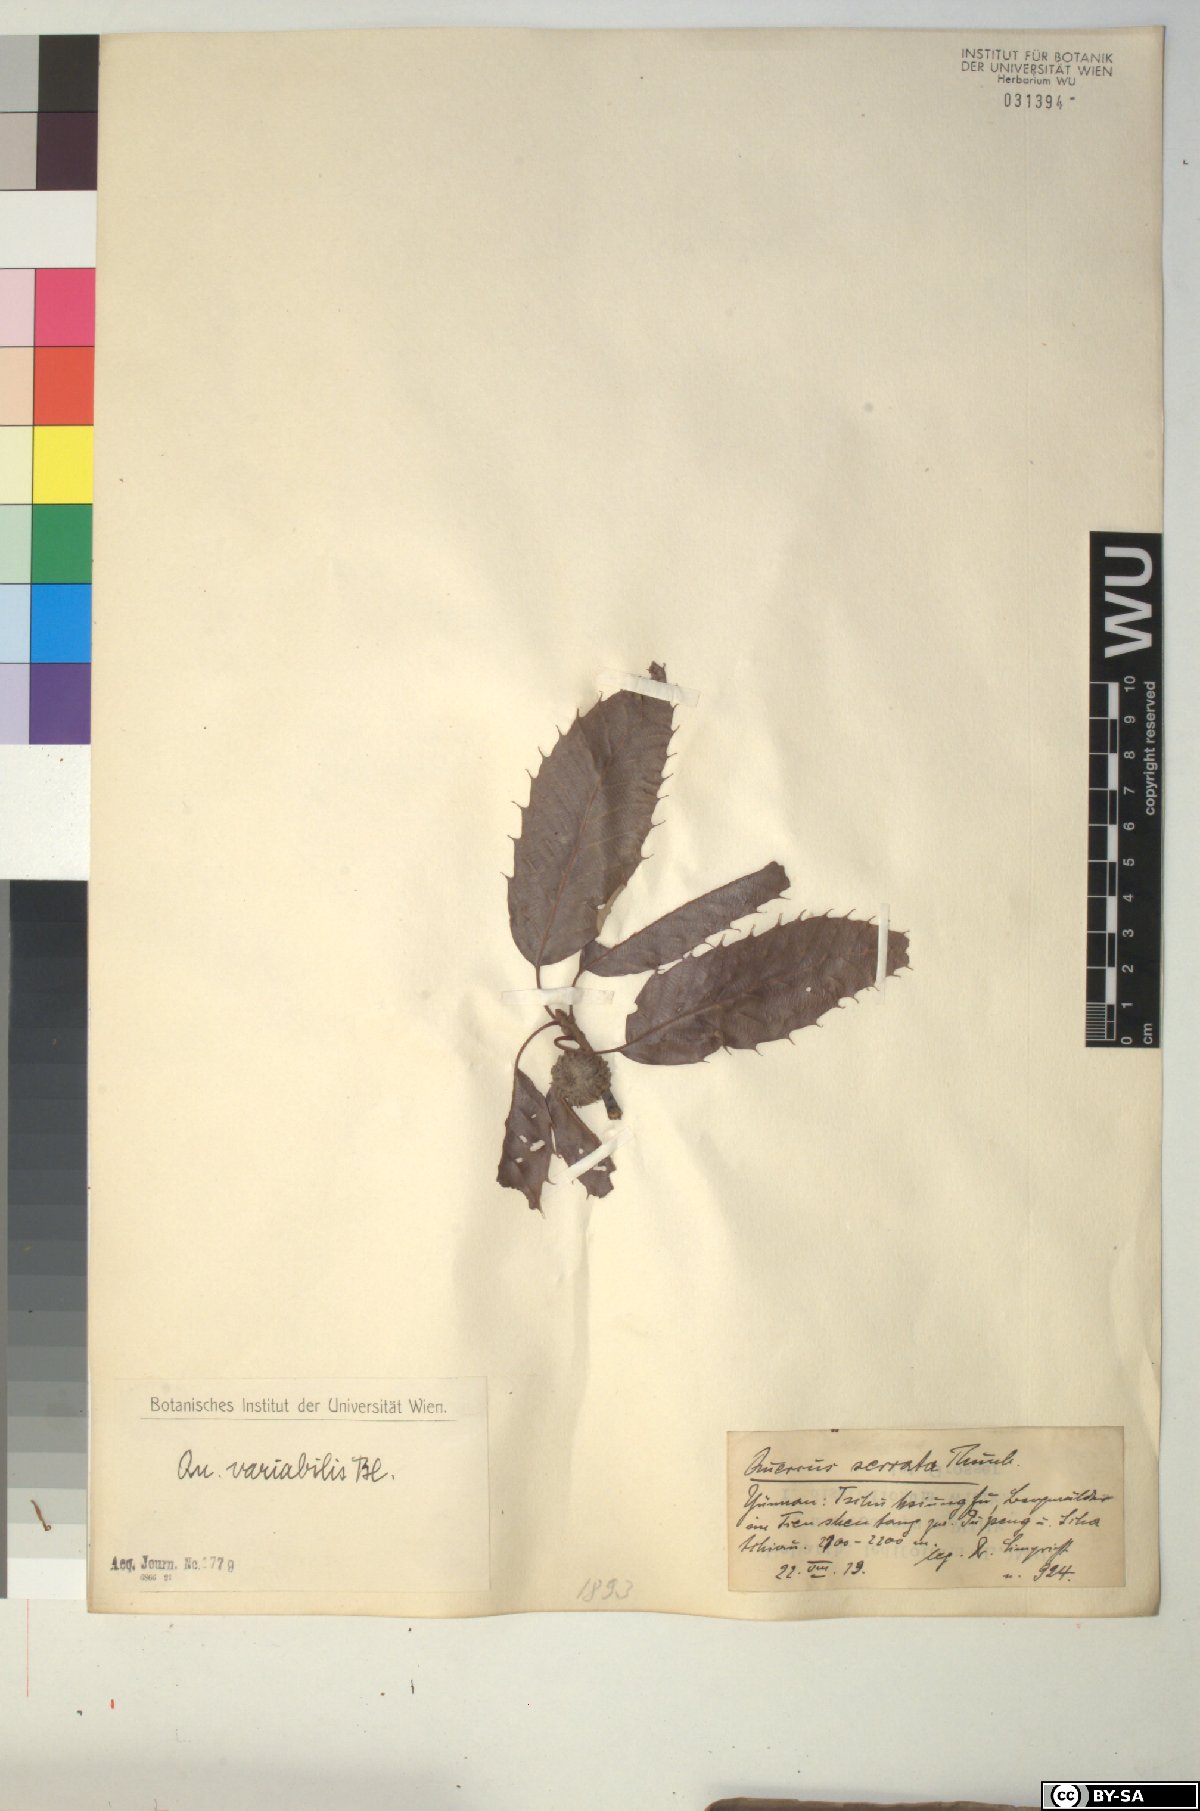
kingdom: Plantae
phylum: Tracheophyta
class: Magnoliopsida
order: Fagales
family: Fagaceae
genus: Quercus
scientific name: Quercus variabilis
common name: Chinese cork oak
